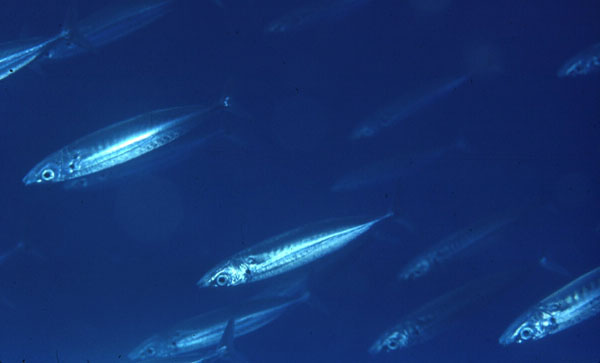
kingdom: Animalia
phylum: Chordata
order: Perciformes
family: Carangidae
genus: Decapterus
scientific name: Decapterus
